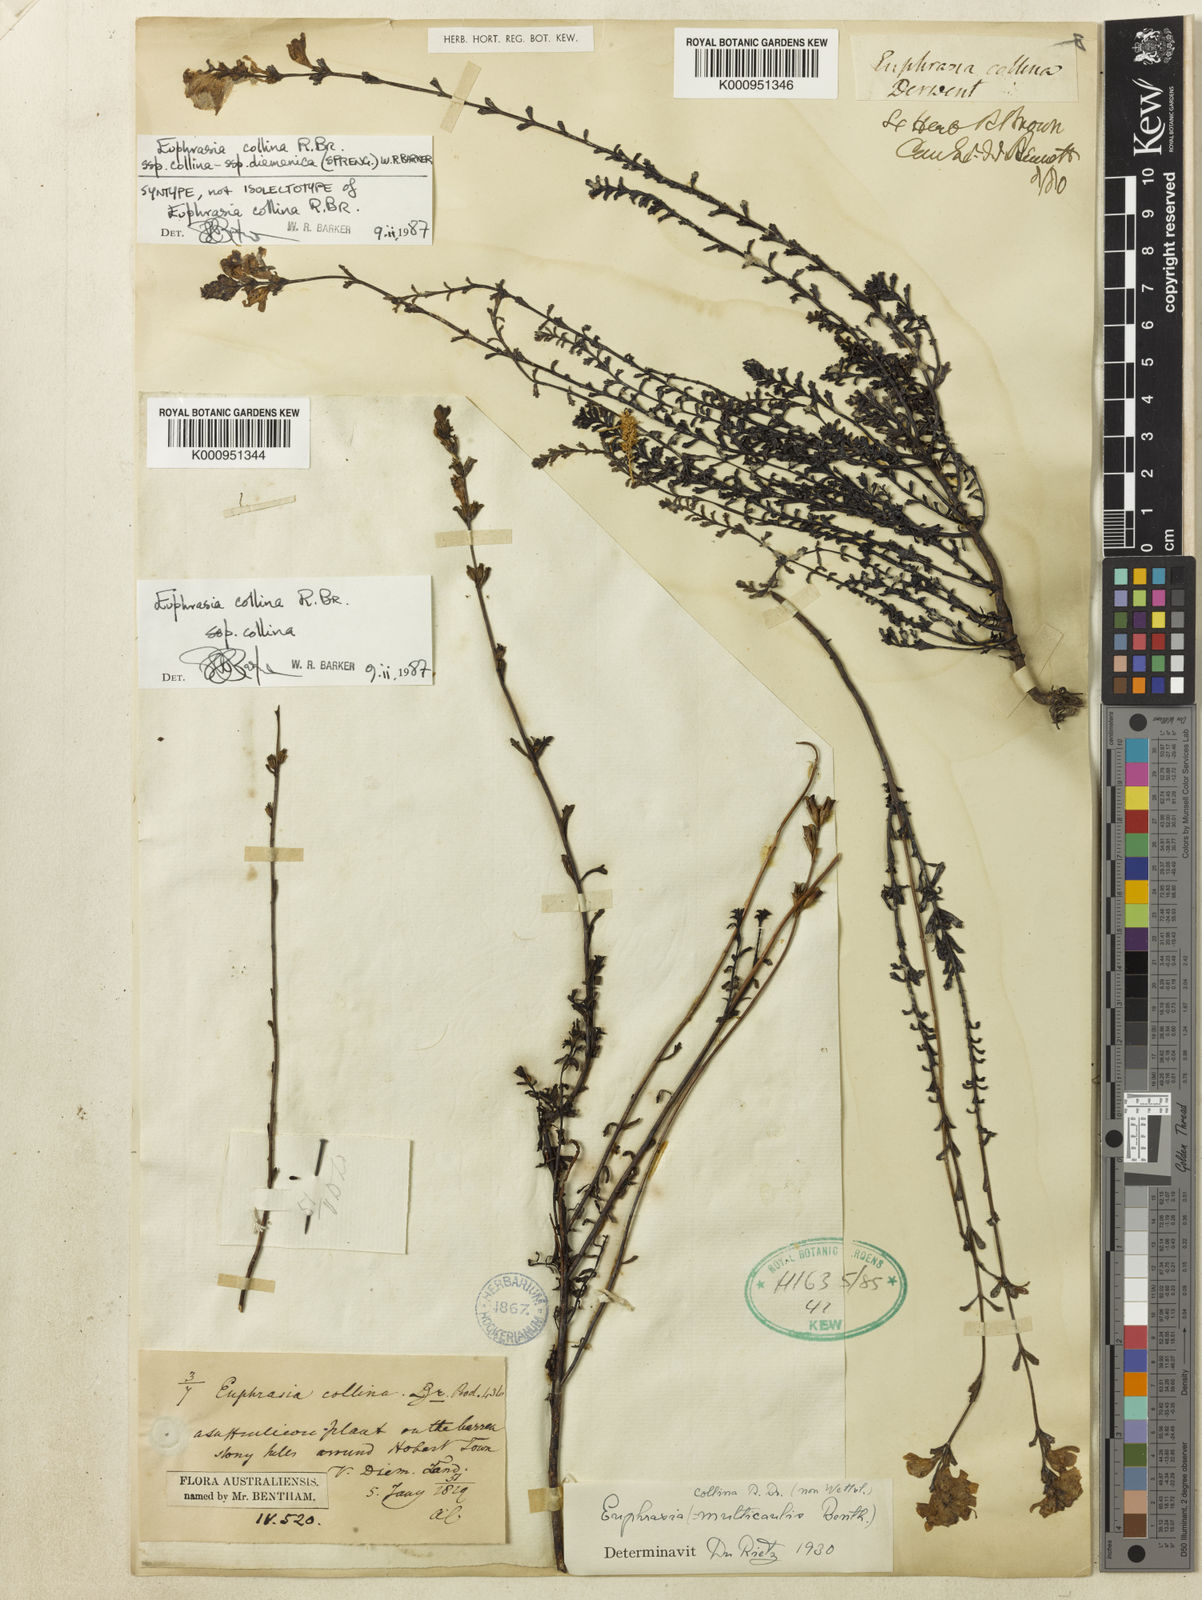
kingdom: Plantae
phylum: Tracheophyta
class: Magnoliopsida
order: Lamiales
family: Orobanchaceae
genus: Euphrasia
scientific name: Euphrasia collina
